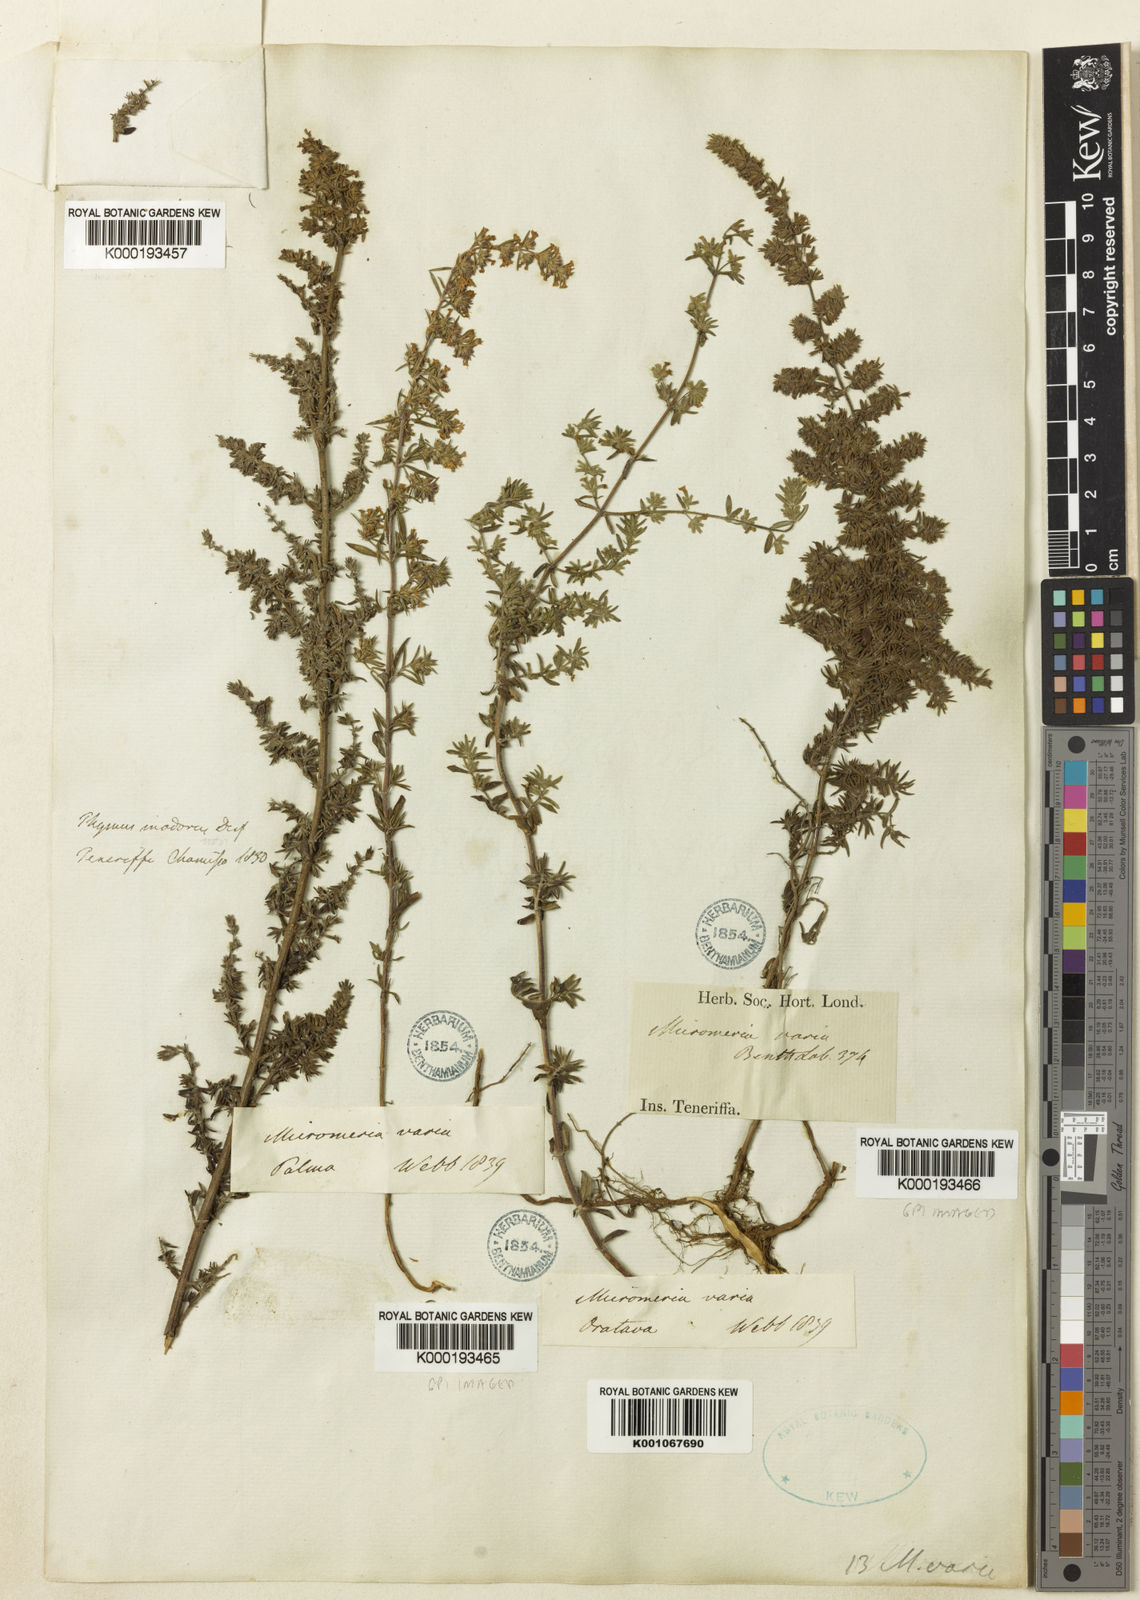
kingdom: Plantae
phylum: Tracheophyta
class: Magnoliopsida
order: Lamiales
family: Lamiaceae
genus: Micromeria
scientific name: Micromeria ericifolia
